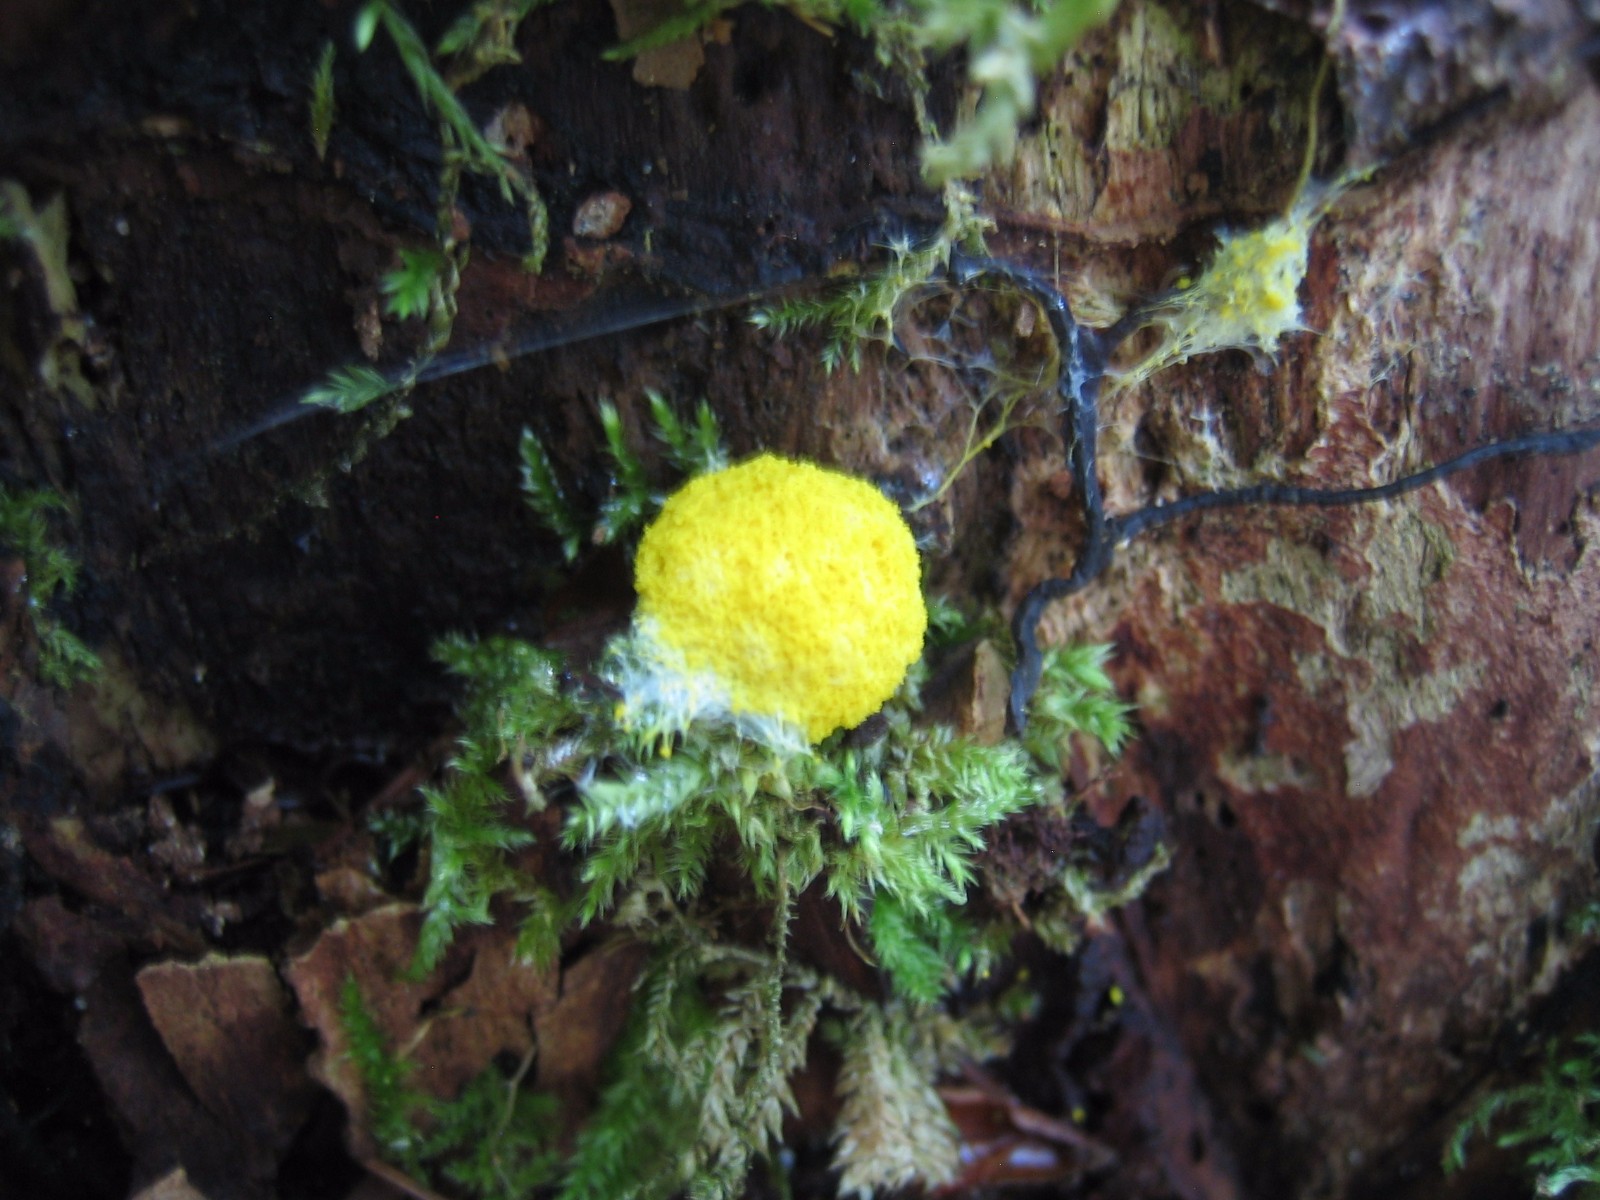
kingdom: Protozoa
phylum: Mycetozoa
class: Myxomycetes
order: Physarales
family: Physaraceae
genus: Fuligo
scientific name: Fuligo septica
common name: gul troldsmør
